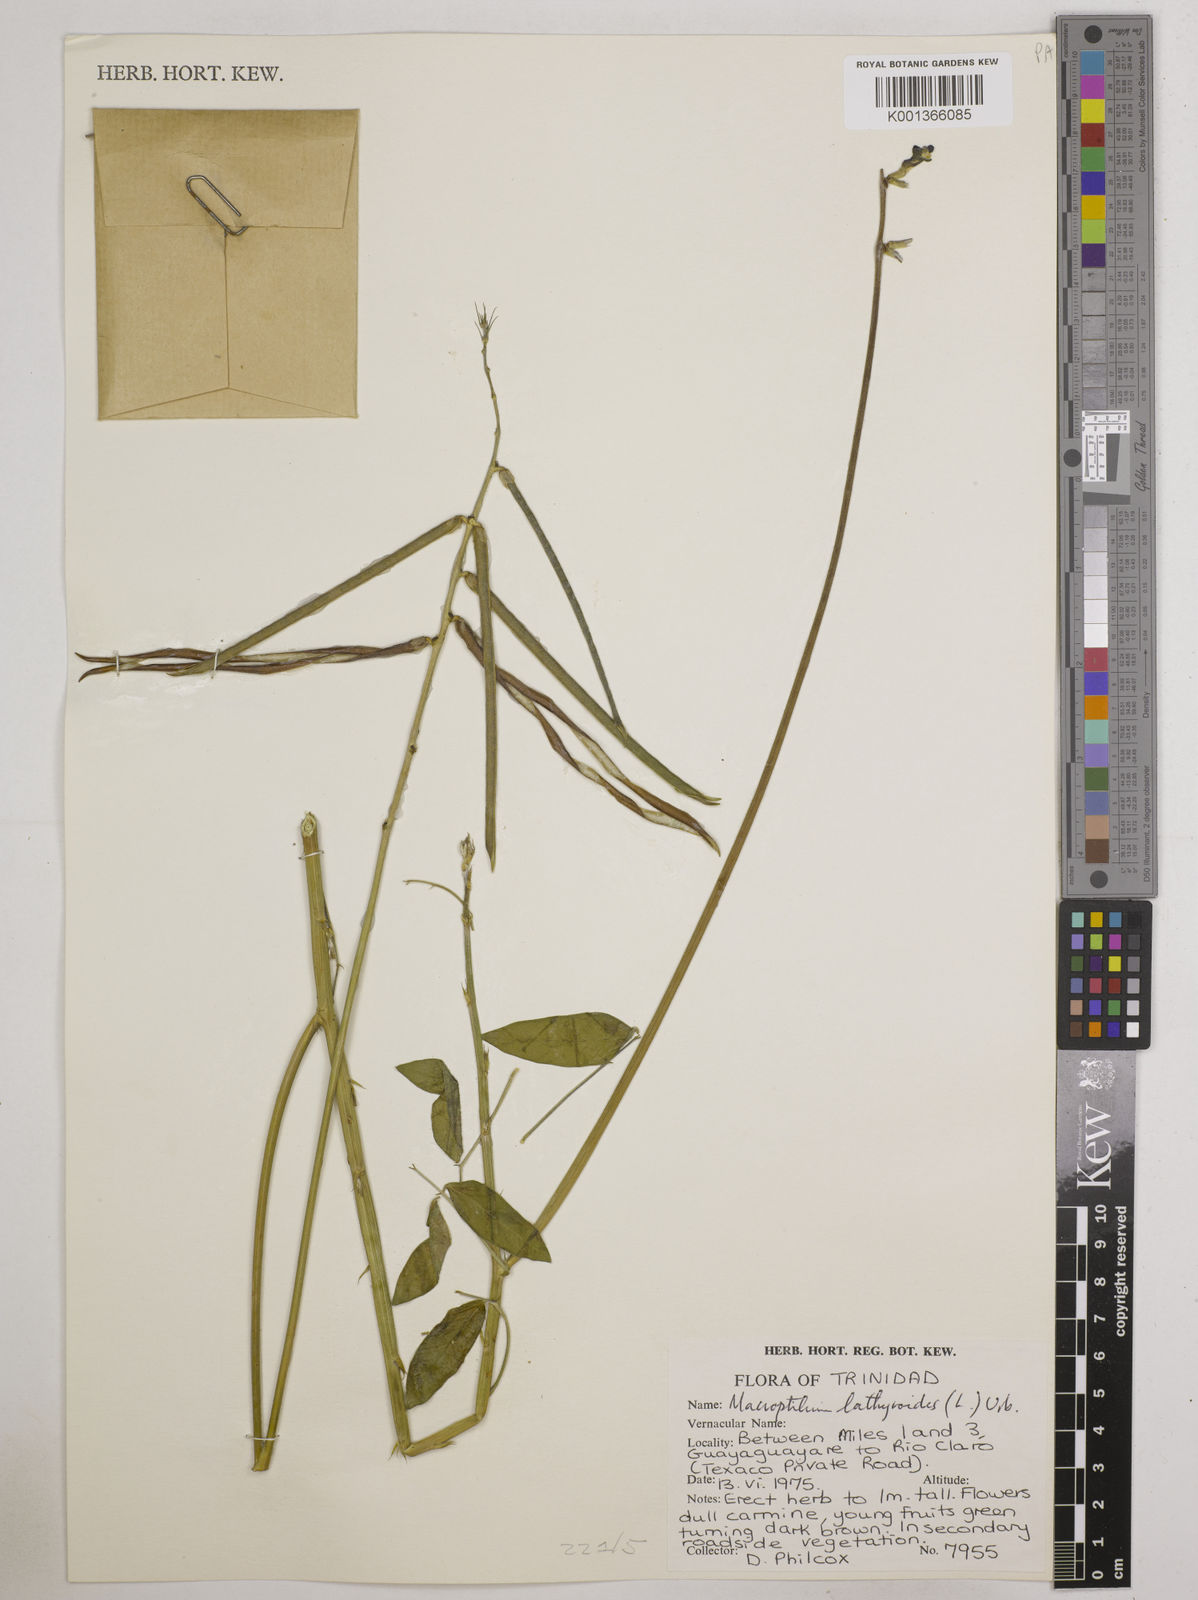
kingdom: Plantae
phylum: Tracheophyta
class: Magnoliopsida
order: Fabales
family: Fabaceae
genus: Macroptilium
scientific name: Macroptilium lathyroides
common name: Wild bushbean
